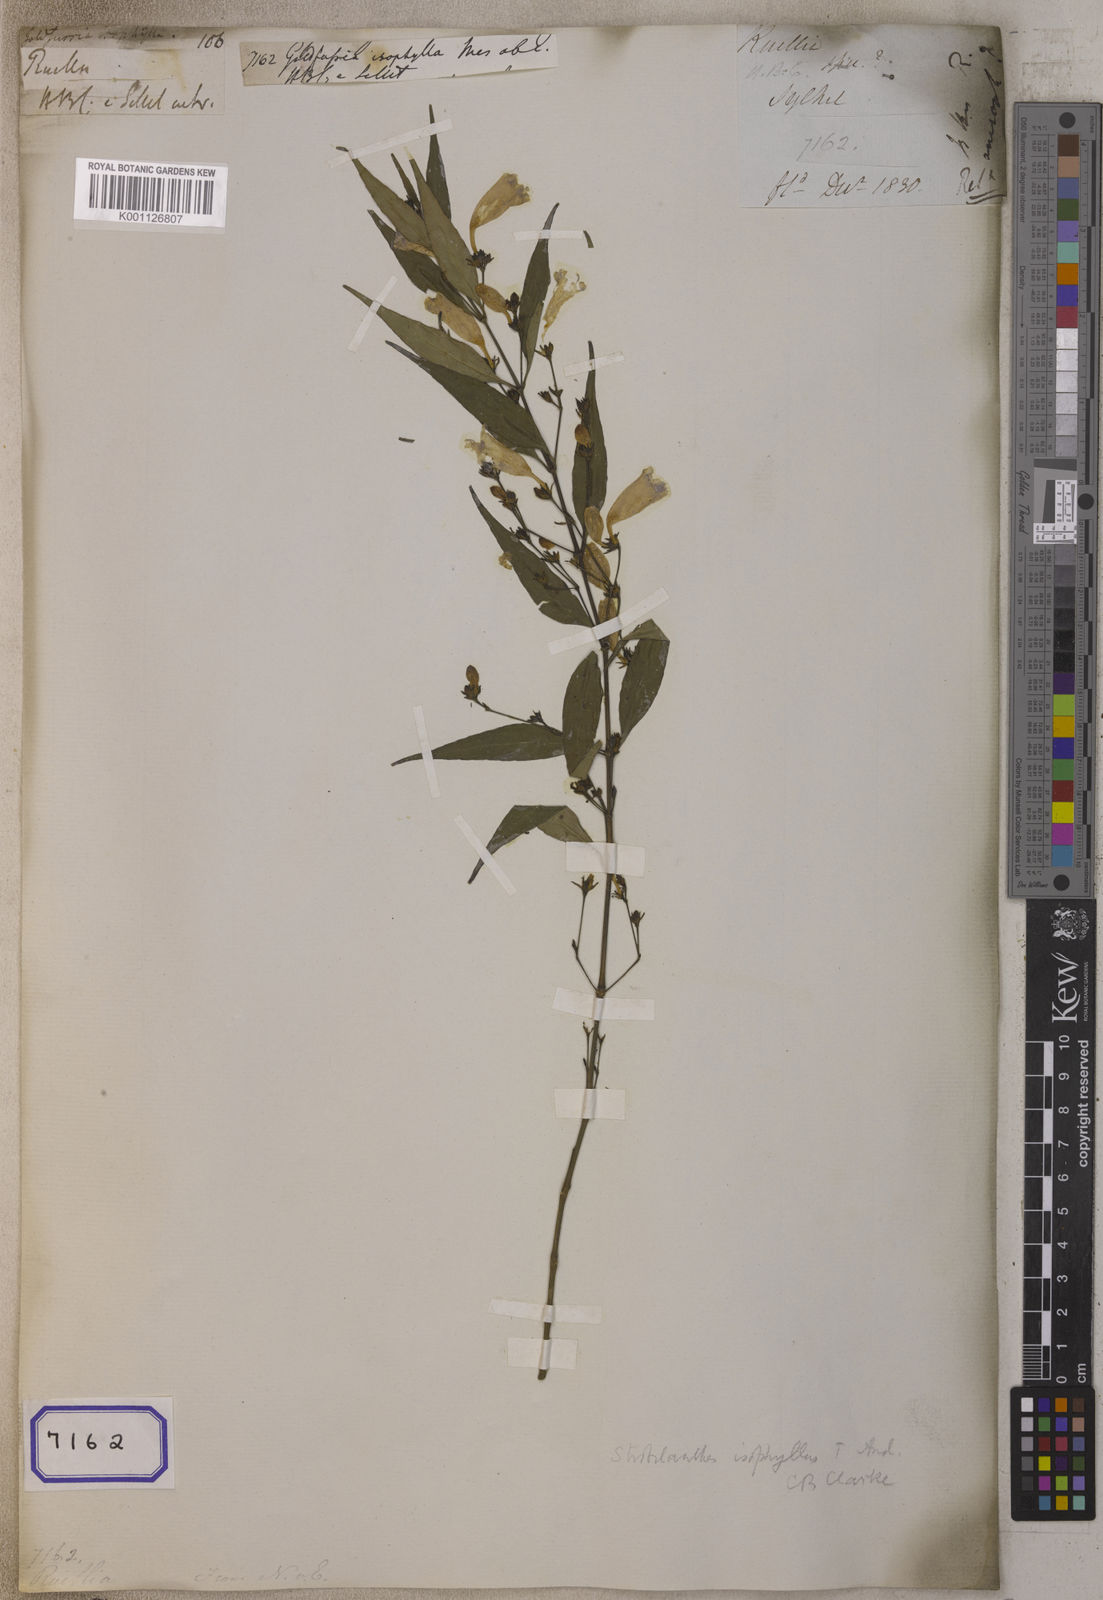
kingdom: Plantae
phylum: Tracheophyta
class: Magnoliopsida
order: Lamiales
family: Acanthaceae
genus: Strobilanthes
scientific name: Strobilanthes anisophylla
